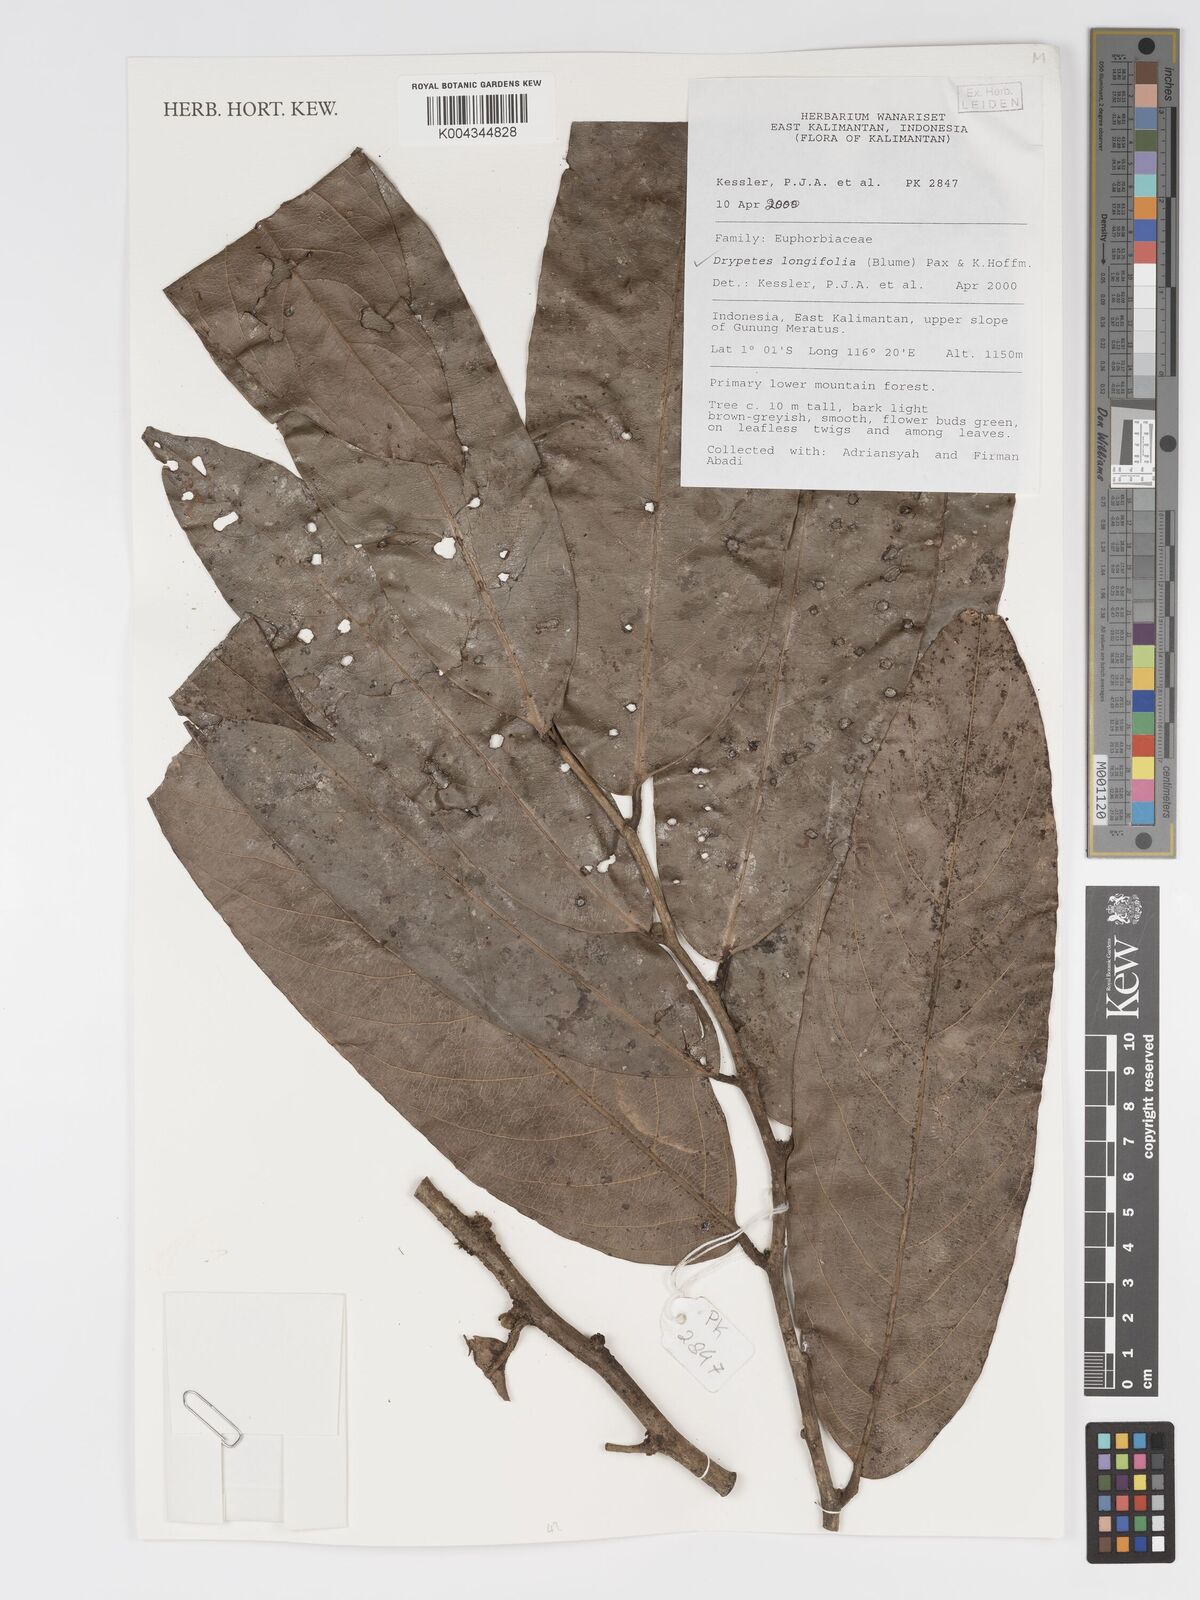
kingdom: Plantae
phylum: Tracheophyta
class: Magnoliopsida
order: Malpighiales
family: Putranjivaceae
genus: Drypetes
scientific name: Drypetes longifolia
